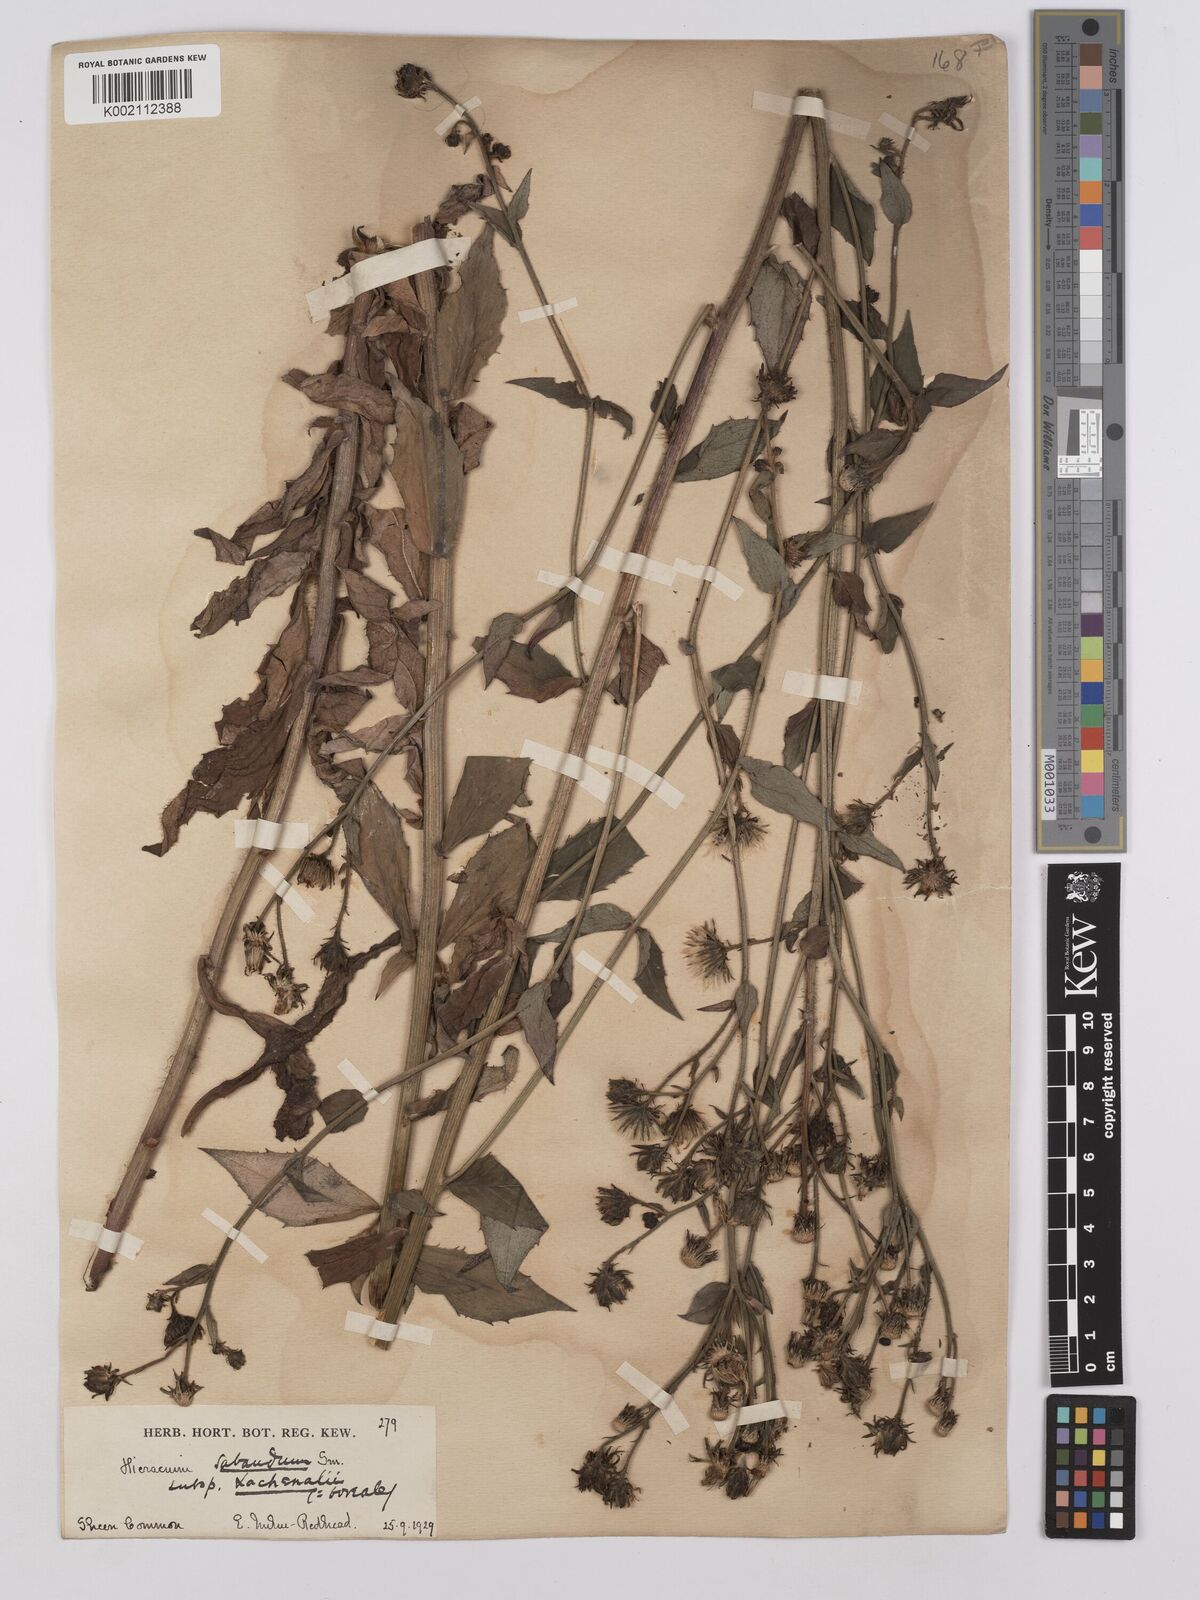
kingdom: Plantae
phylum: Tracheophyta
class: Magnoliopsida
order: Asterales
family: Asteraceae
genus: Hieracium
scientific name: Hieracium sabaudum
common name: New england hawkweed
